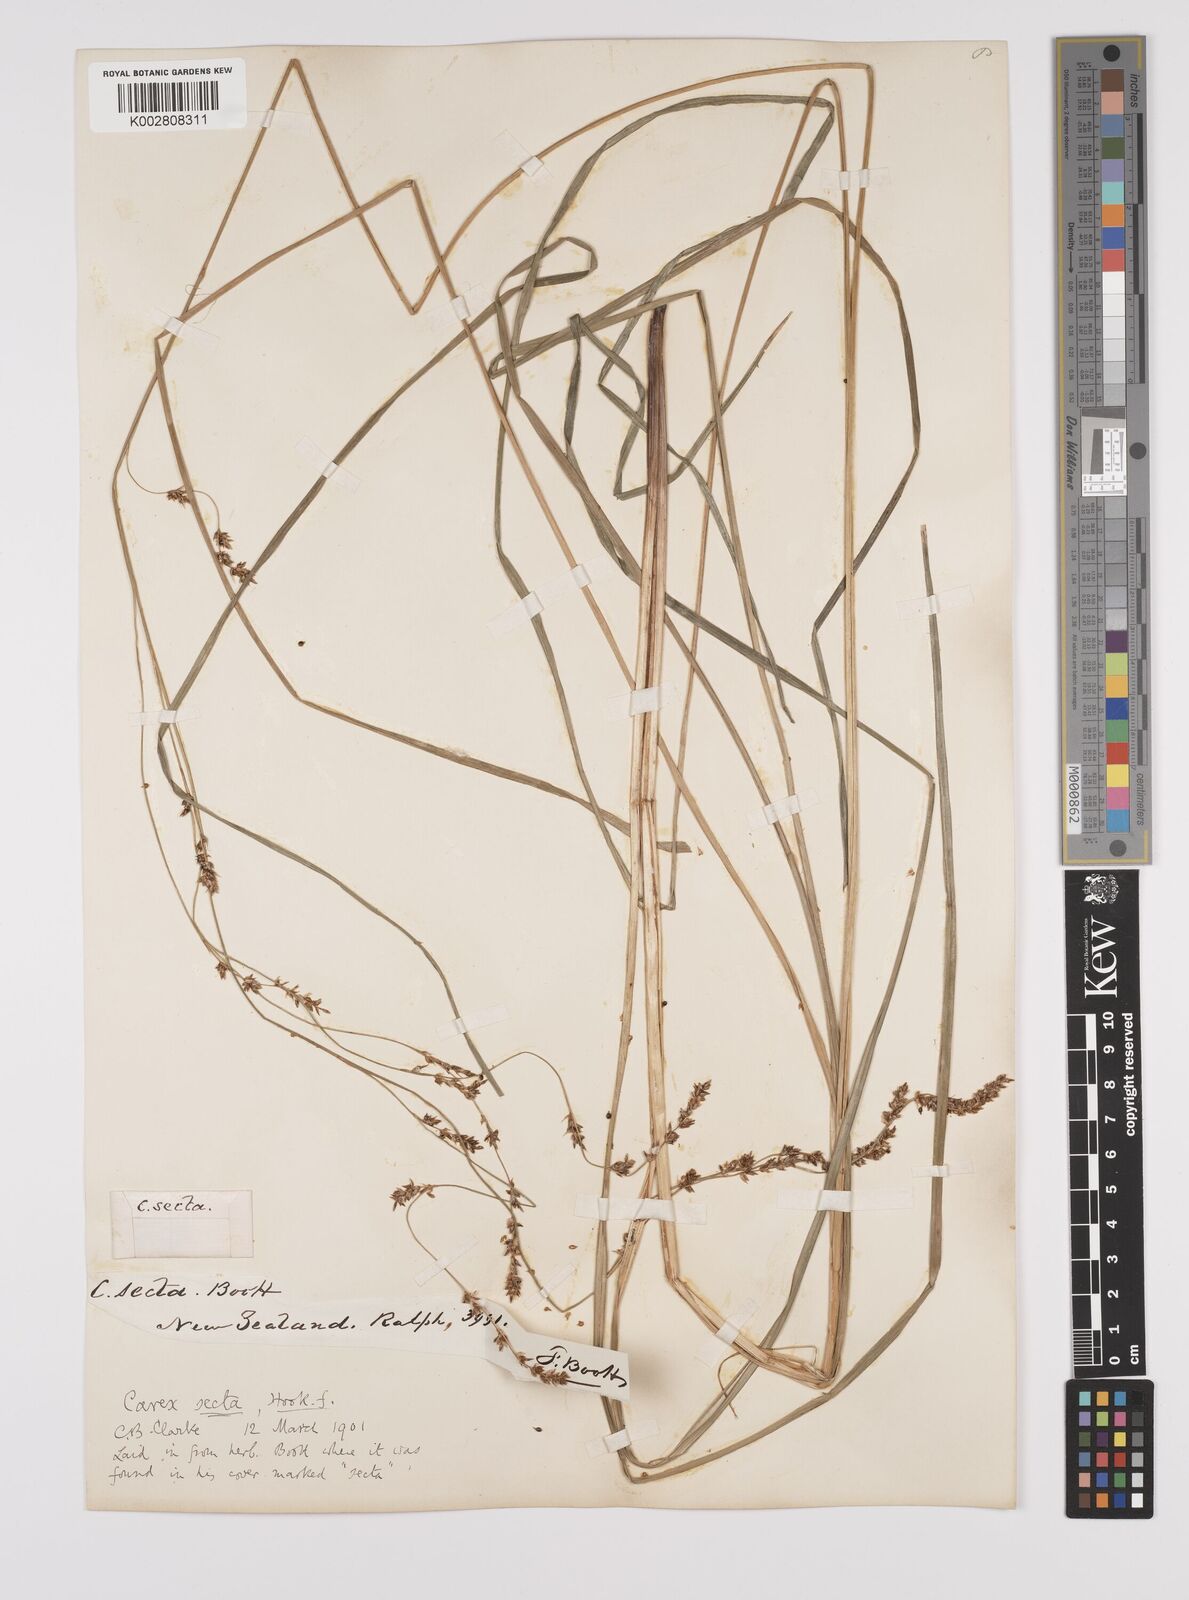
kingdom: Plantae
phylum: Tracheophyta
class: Liliopsida
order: Poales
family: Cyperaceae
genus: Carex
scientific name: Carex appressa
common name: Tussock sedge
